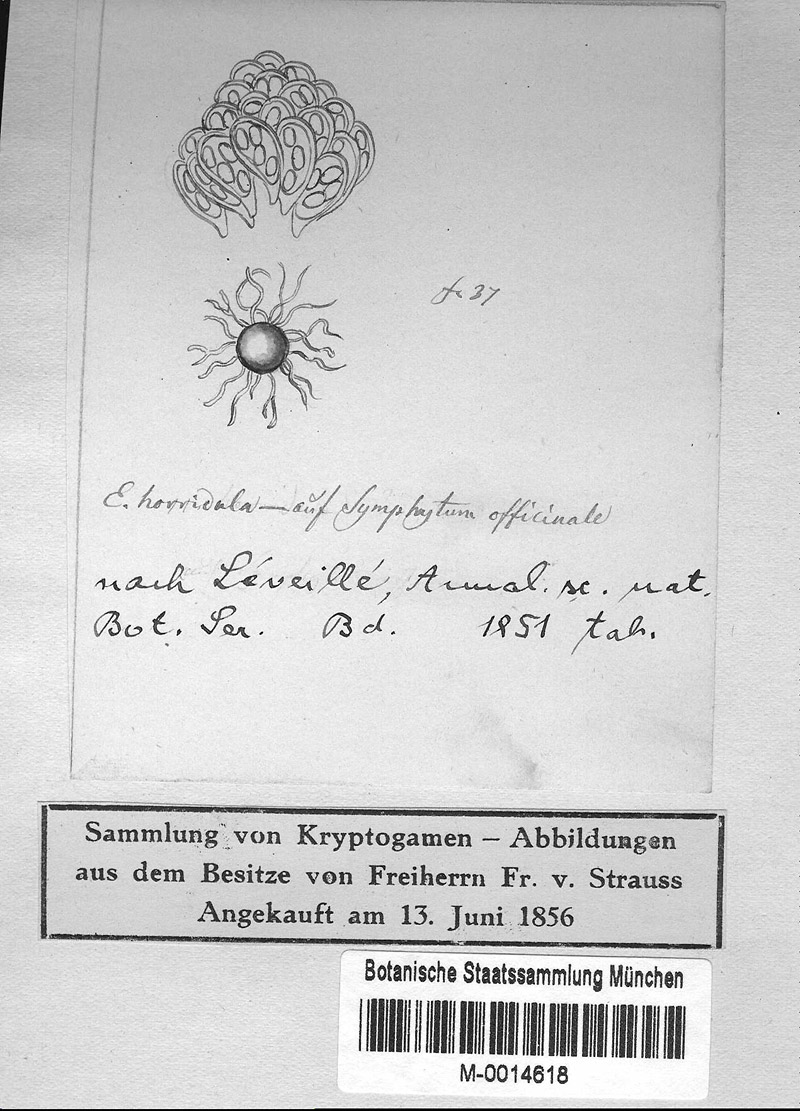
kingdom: Plantae
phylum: Tracheophyta
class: Magnoliopsida
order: Boraginales
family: Boraginaceae
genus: Symphytum
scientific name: Symphytum officinale
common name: Common comfrey
